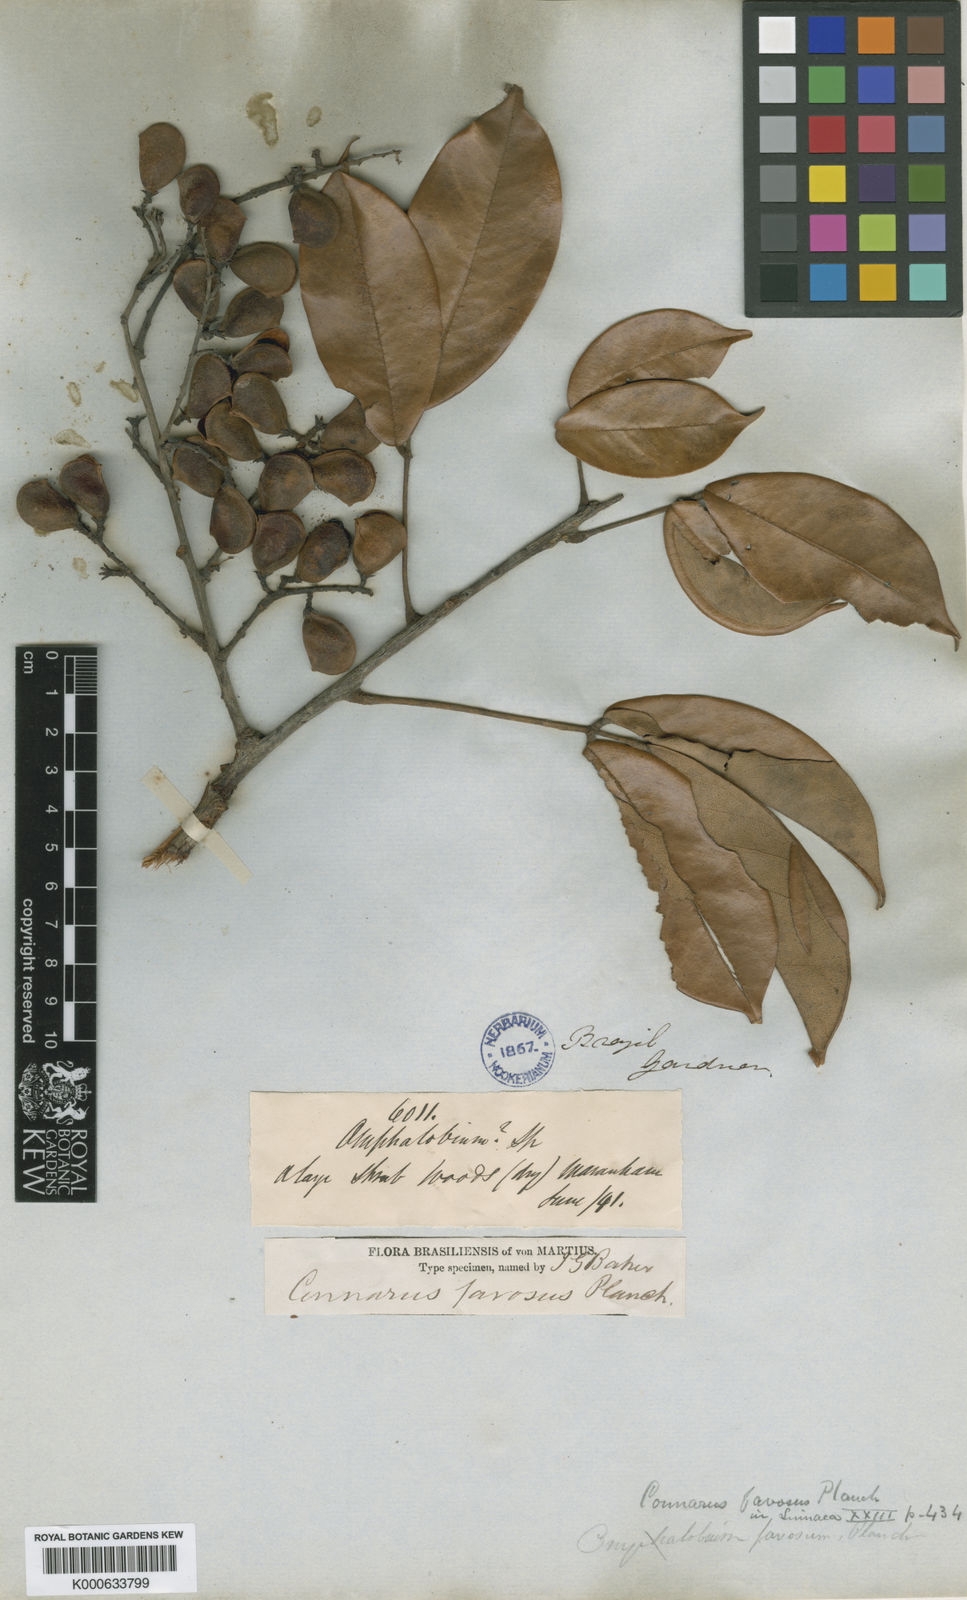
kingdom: Plantae
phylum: Tracheophyta
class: Magnoliopsida
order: Oxalidales
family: Connaraceae
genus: Connarus
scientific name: Connarus favosus
